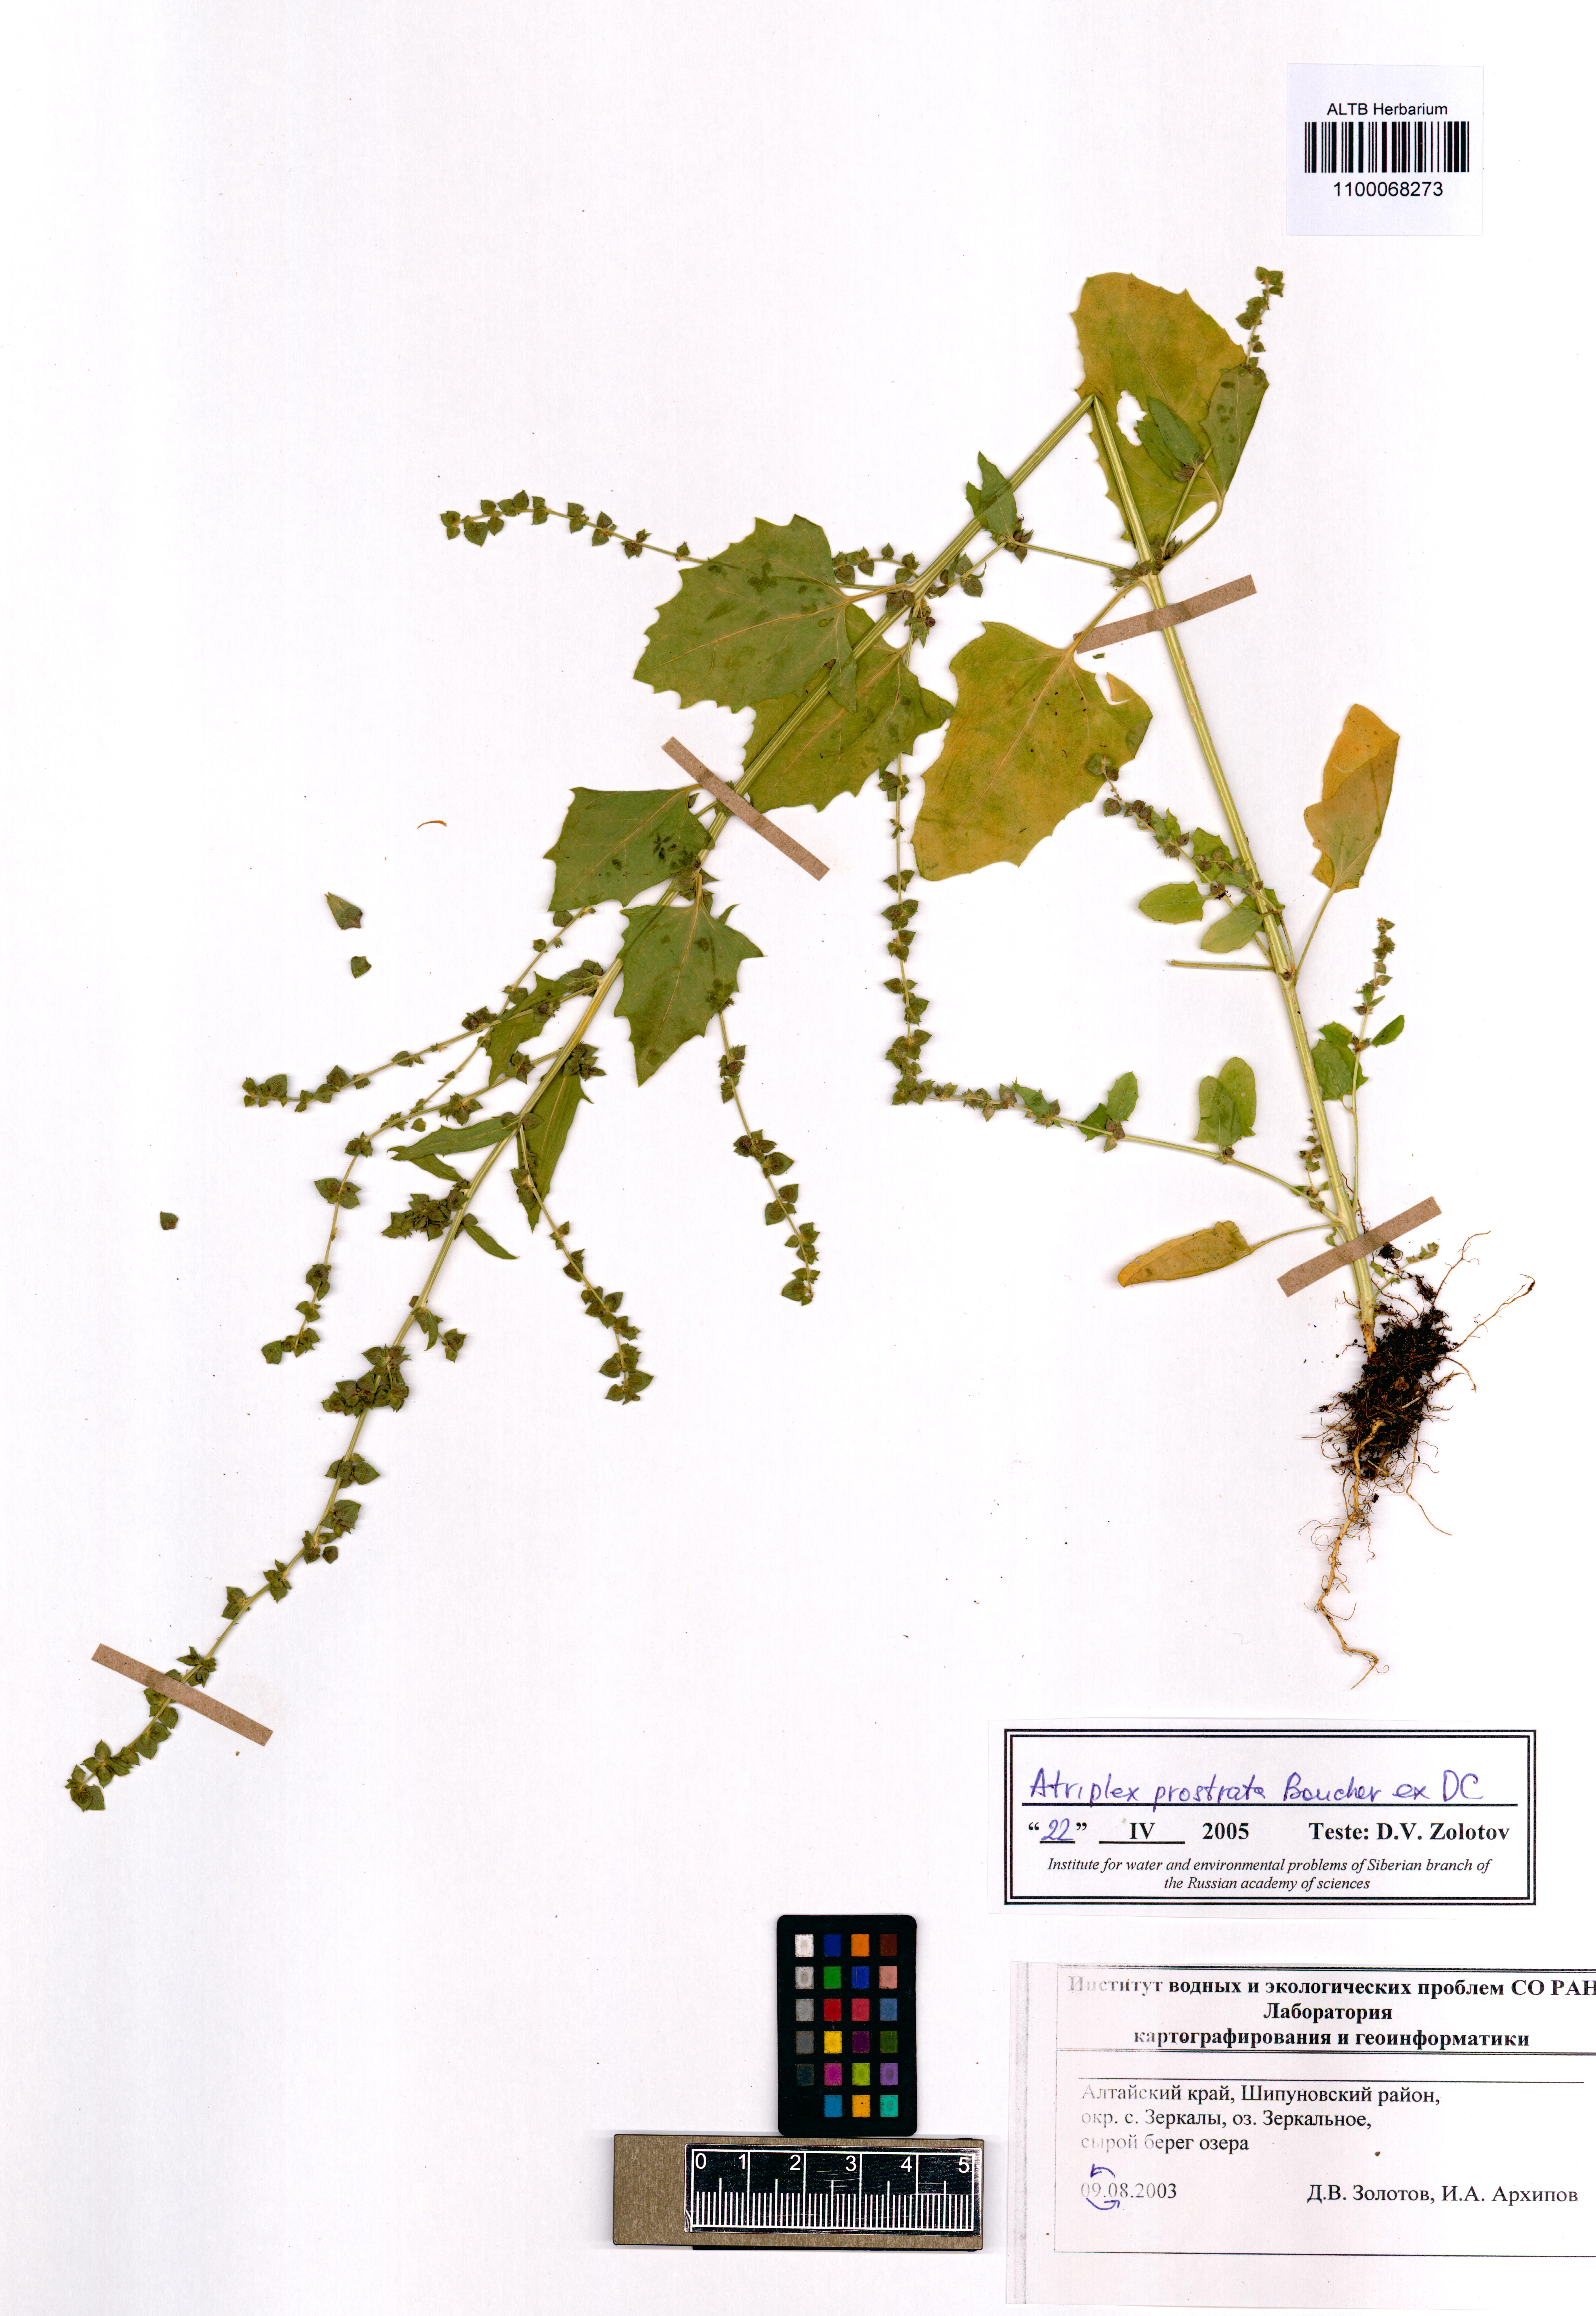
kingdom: Plantae
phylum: Tracheophyta
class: Magnoliopsida
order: Caryophyllales
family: Amaranthaceae
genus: Atriplex
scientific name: Atriplex prostrata
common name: Spear-leaved orache
